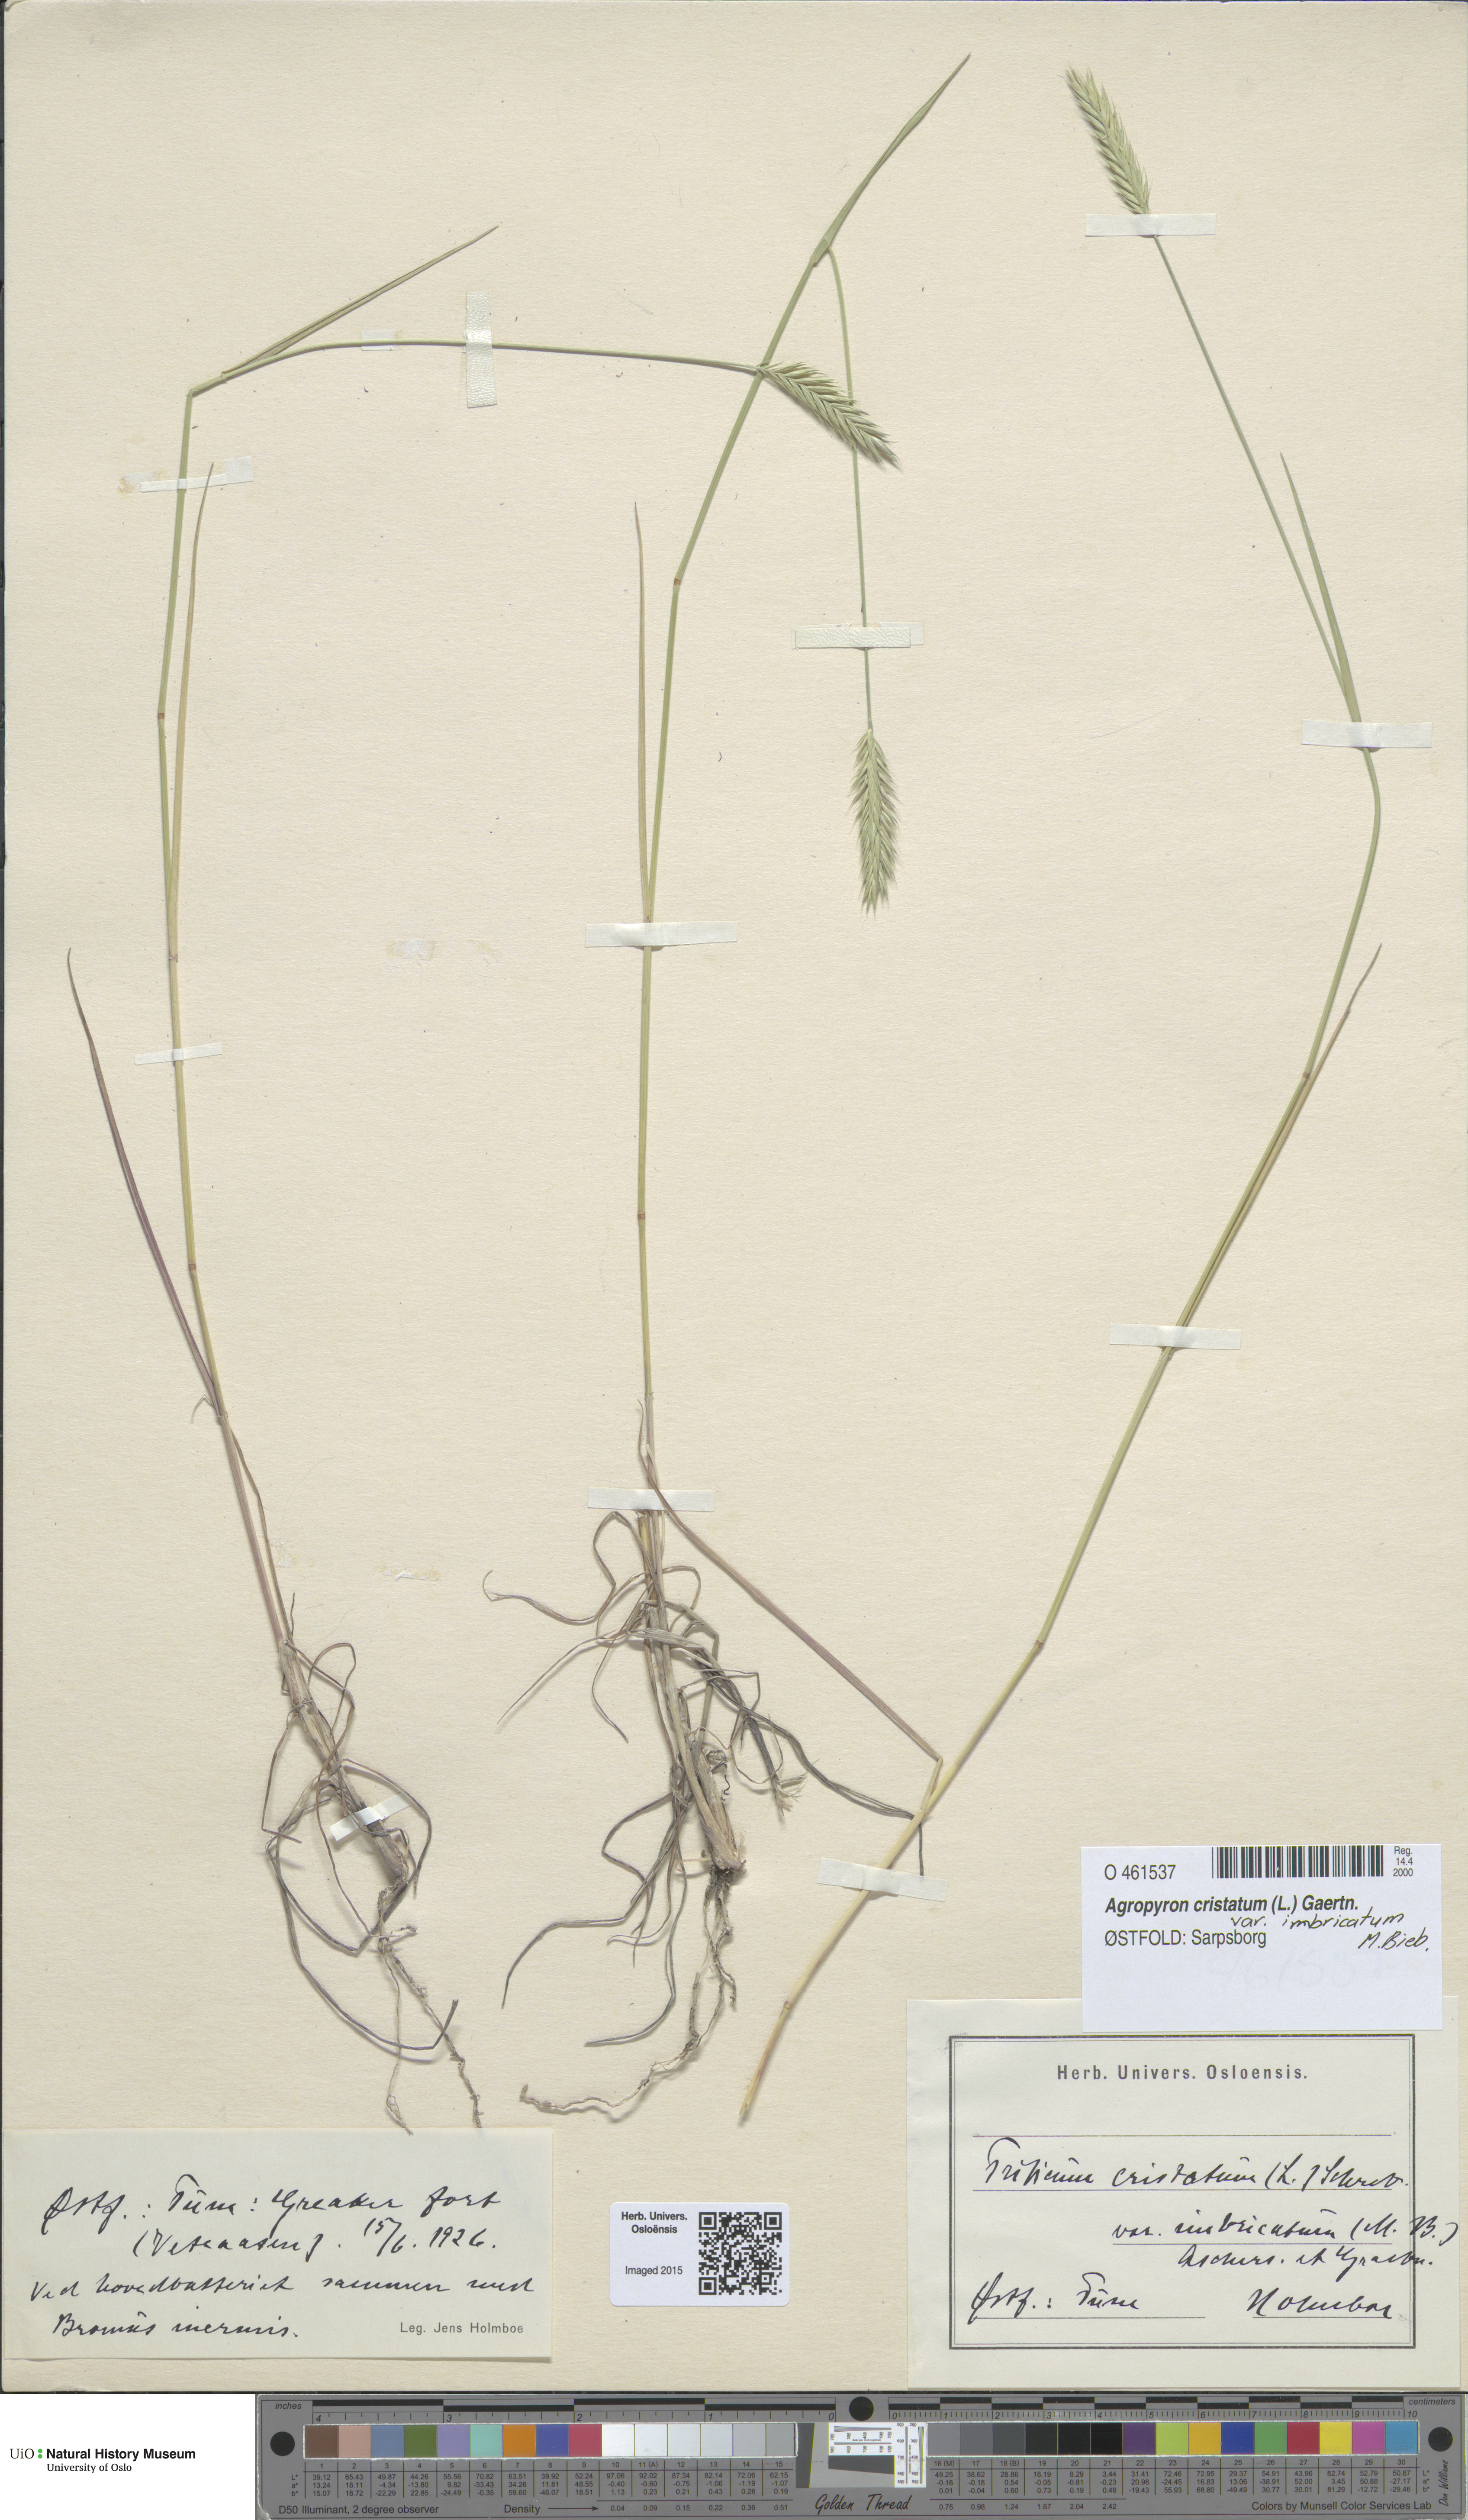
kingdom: Plantae
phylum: Tracheophyta
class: Liliopsida
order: Poales
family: Poaceae
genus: Agropyron
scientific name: Agropyron cristatum
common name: Crested wheatgrass
